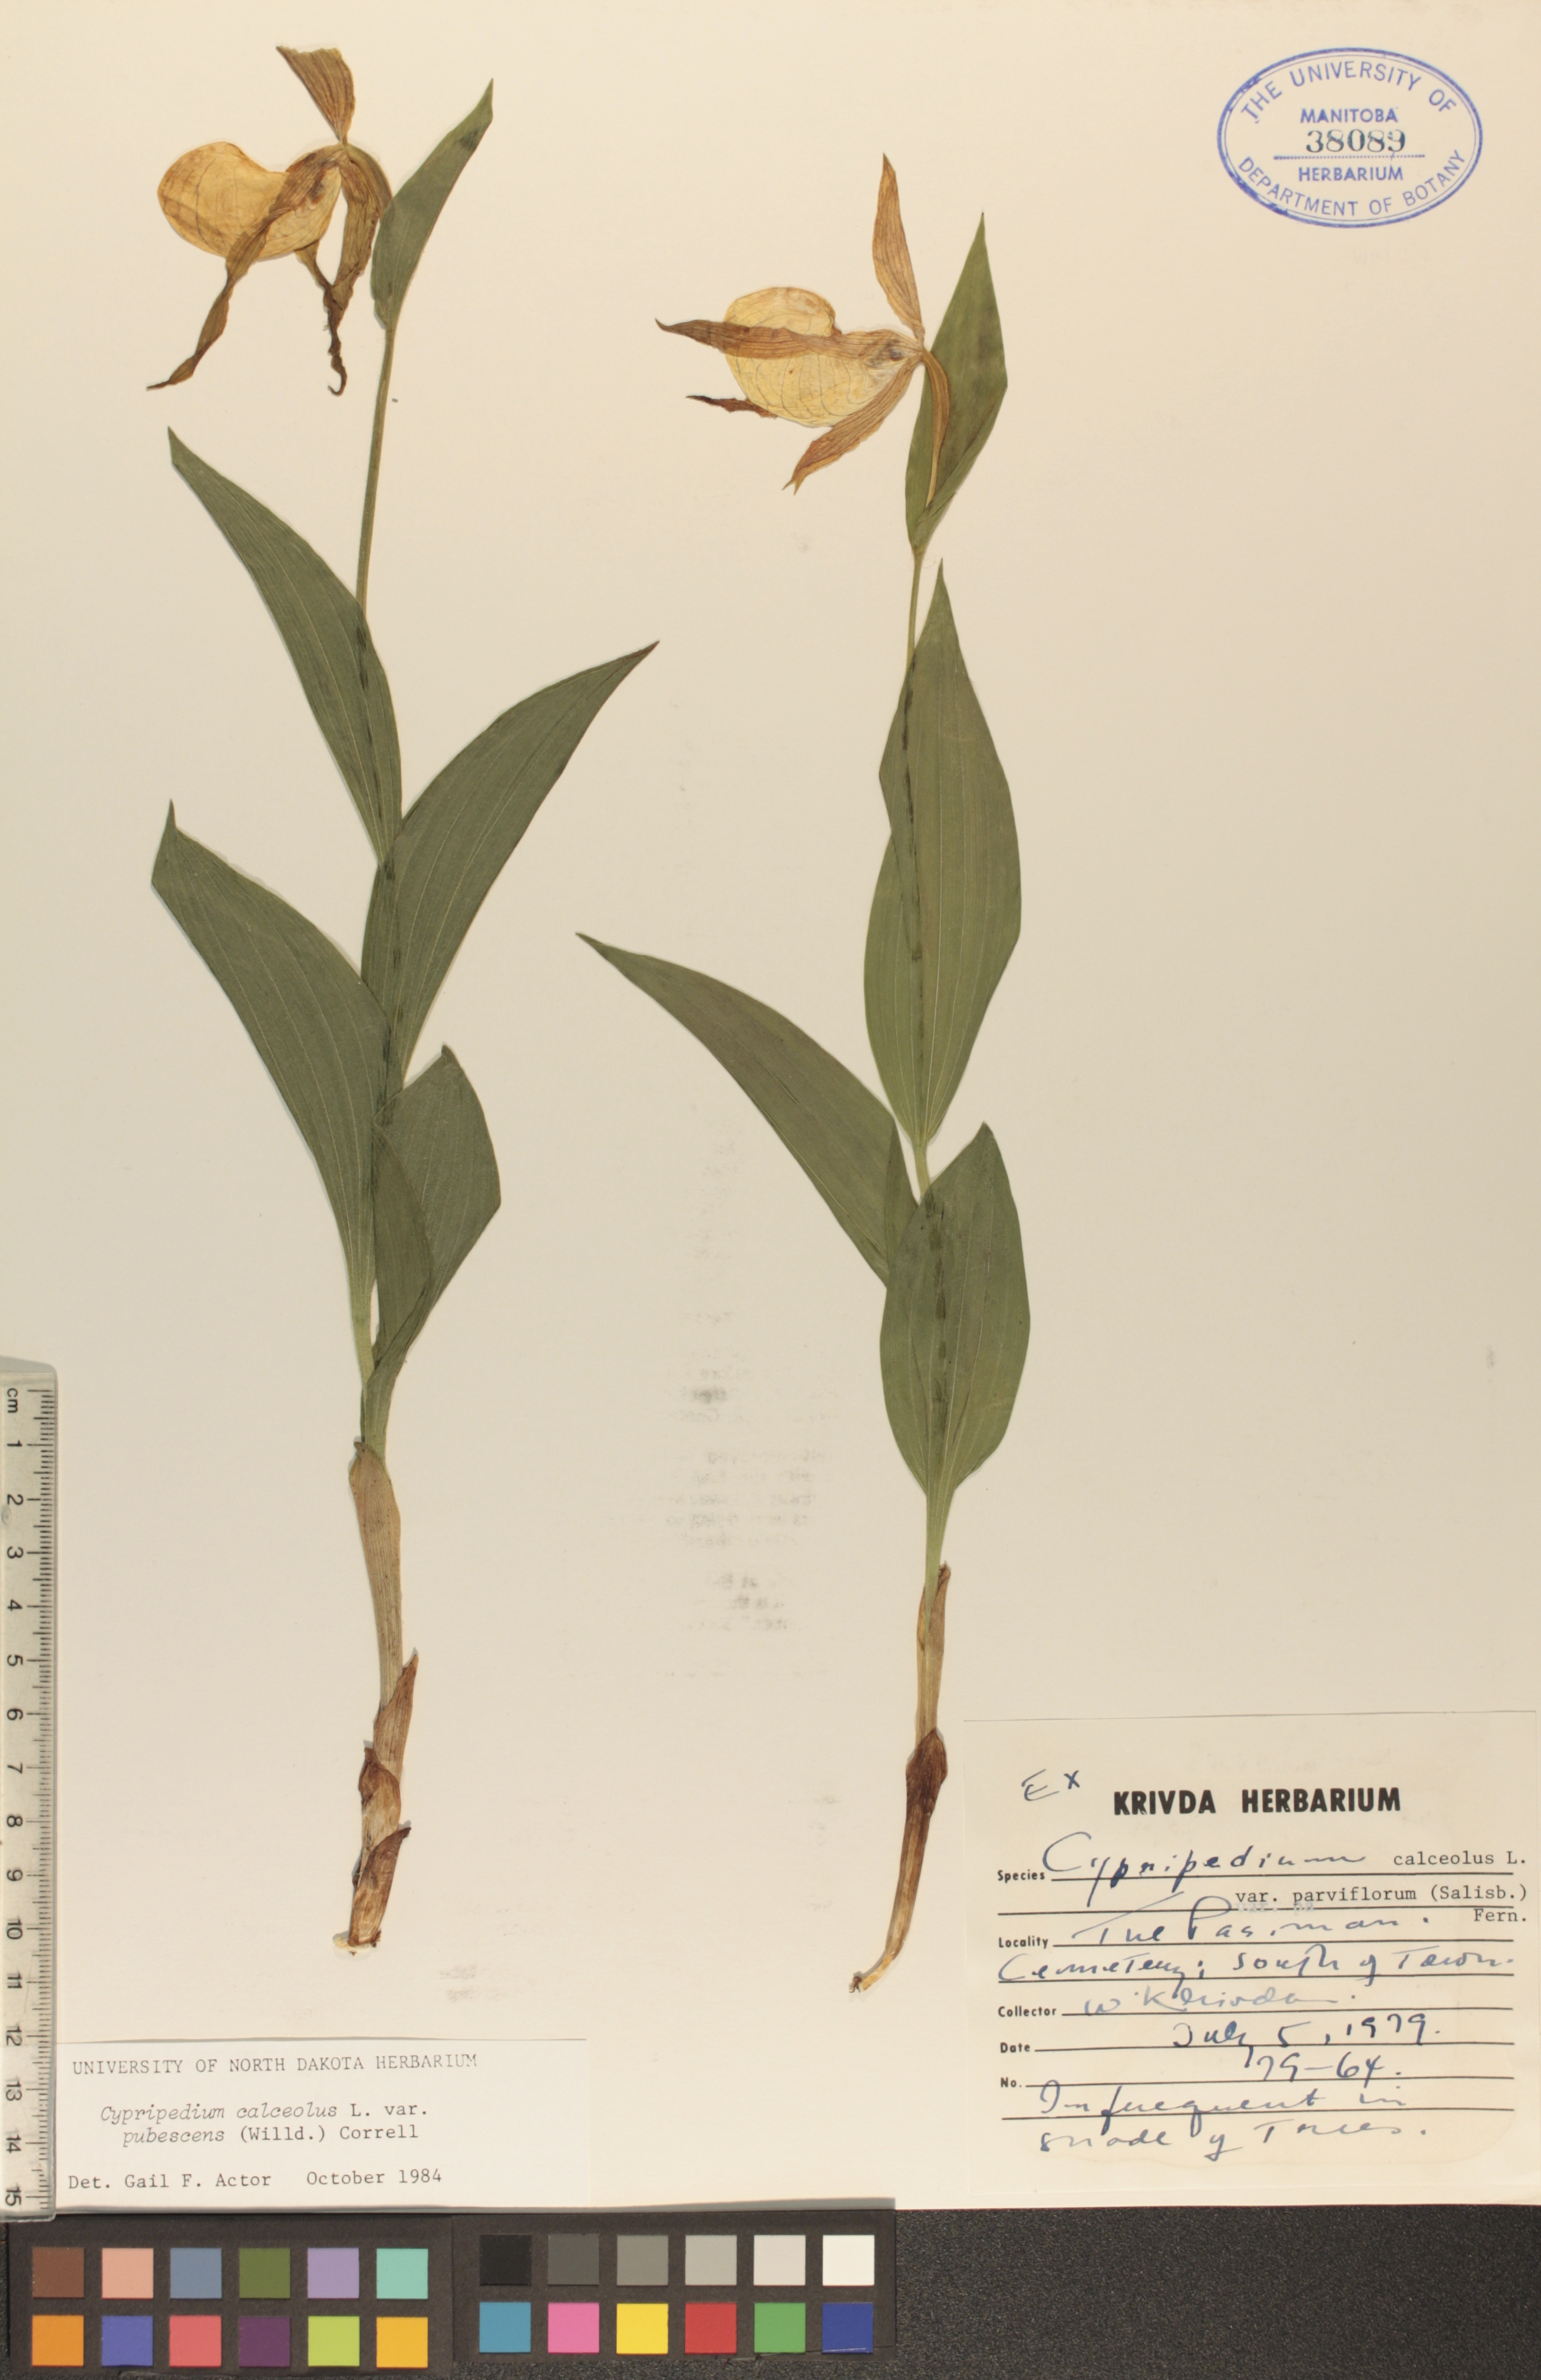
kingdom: Plantae
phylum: Tracheophyta
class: Liliopsida
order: Asparagales
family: Orchidaceae
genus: Cypripedium
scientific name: Cypripedium parviflorum
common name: American yellow lady's-slipper
